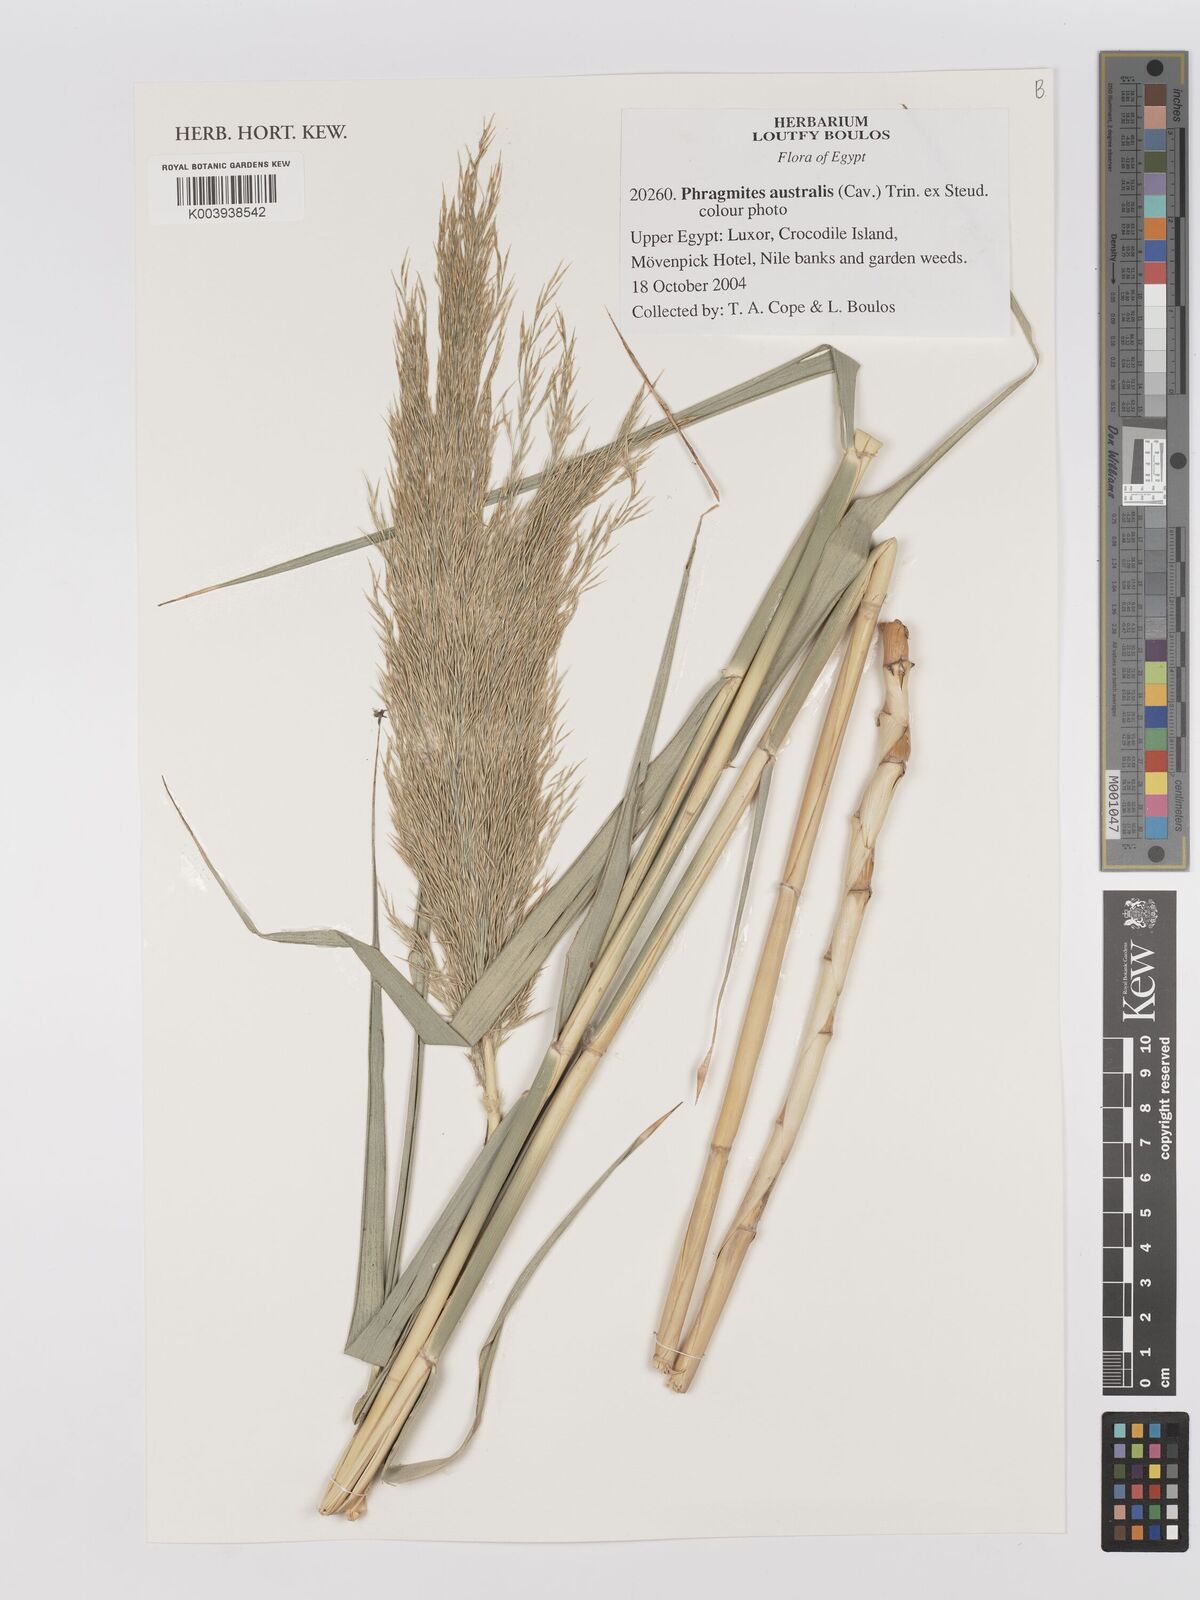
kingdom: Plantae
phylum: Tracheophyta
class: Liliopsida
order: Poales
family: Poaceae
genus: Phragmites
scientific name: Phragmites australis
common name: Common reed
